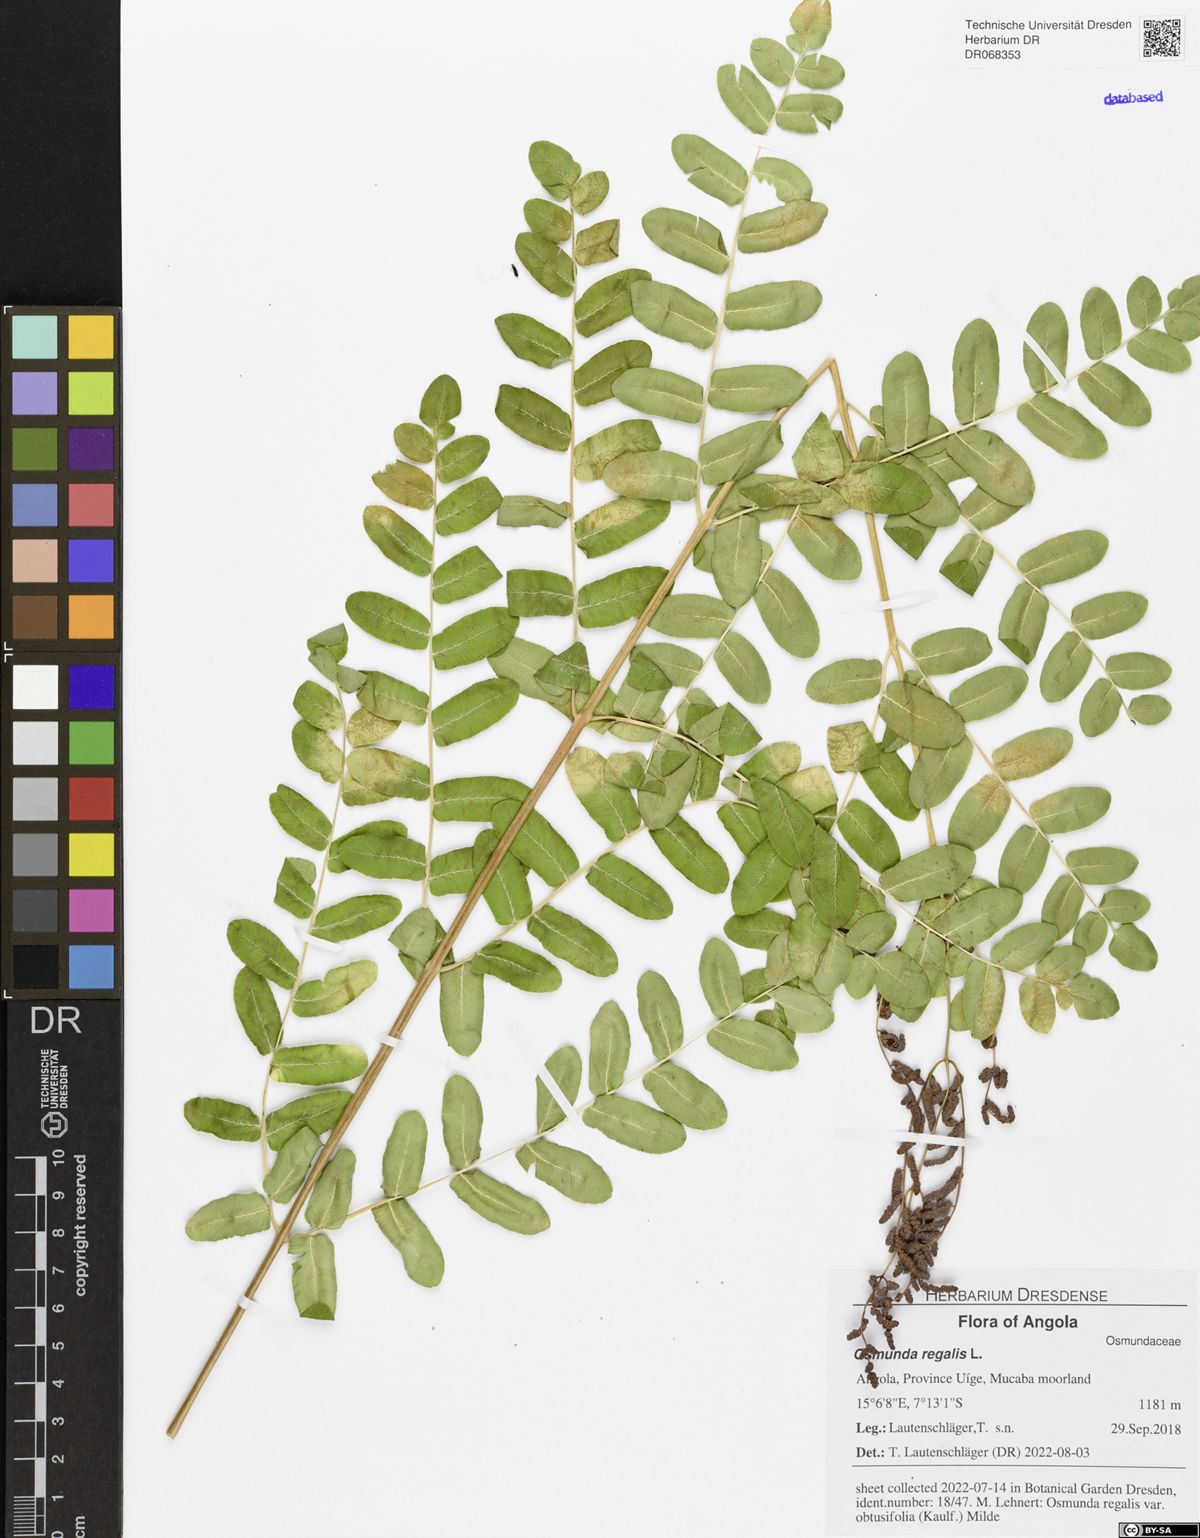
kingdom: Plantae
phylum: Tracheophyta
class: Polypodiopsida
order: Osmundales
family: Osmundaceae
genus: Osmunda
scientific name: Osmunda regalis
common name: Royal fern
